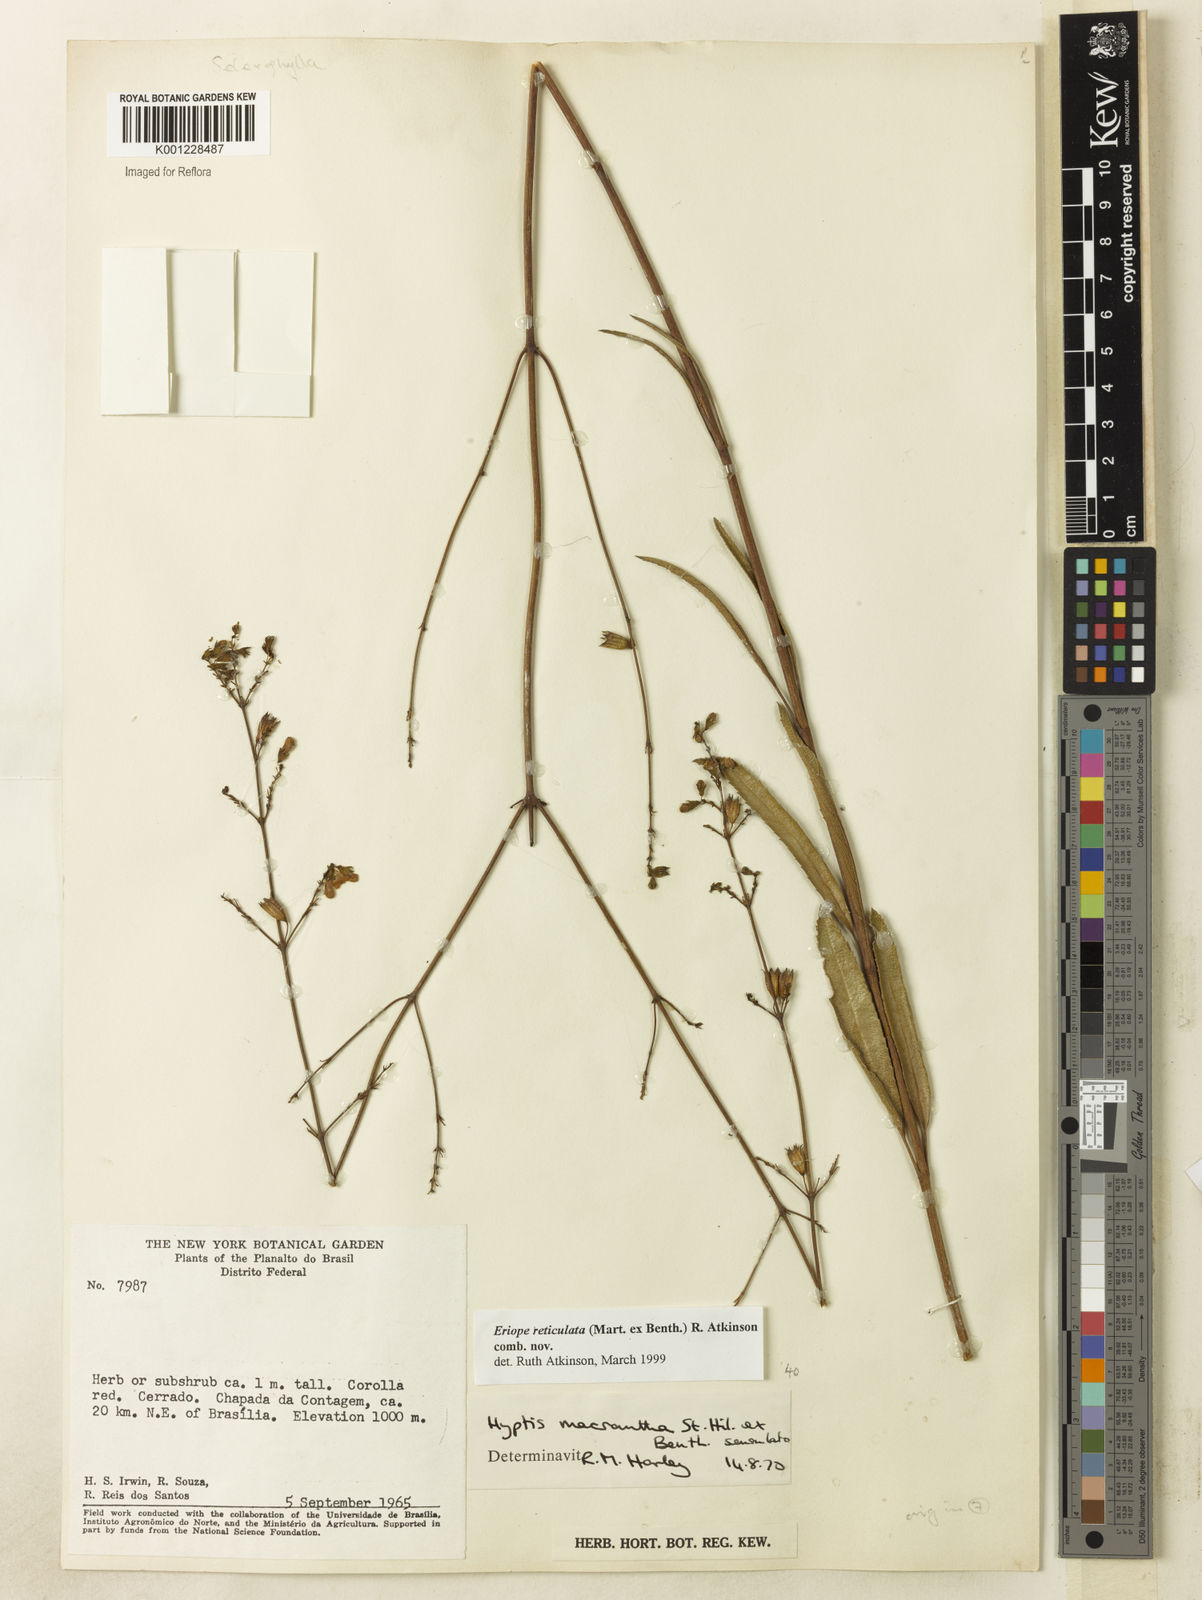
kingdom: Plantae
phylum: Tracheophyta
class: Magnoliopsida
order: Lamiales
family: Lamiaceae
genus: Hypenia
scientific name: Hypenia reticulata
